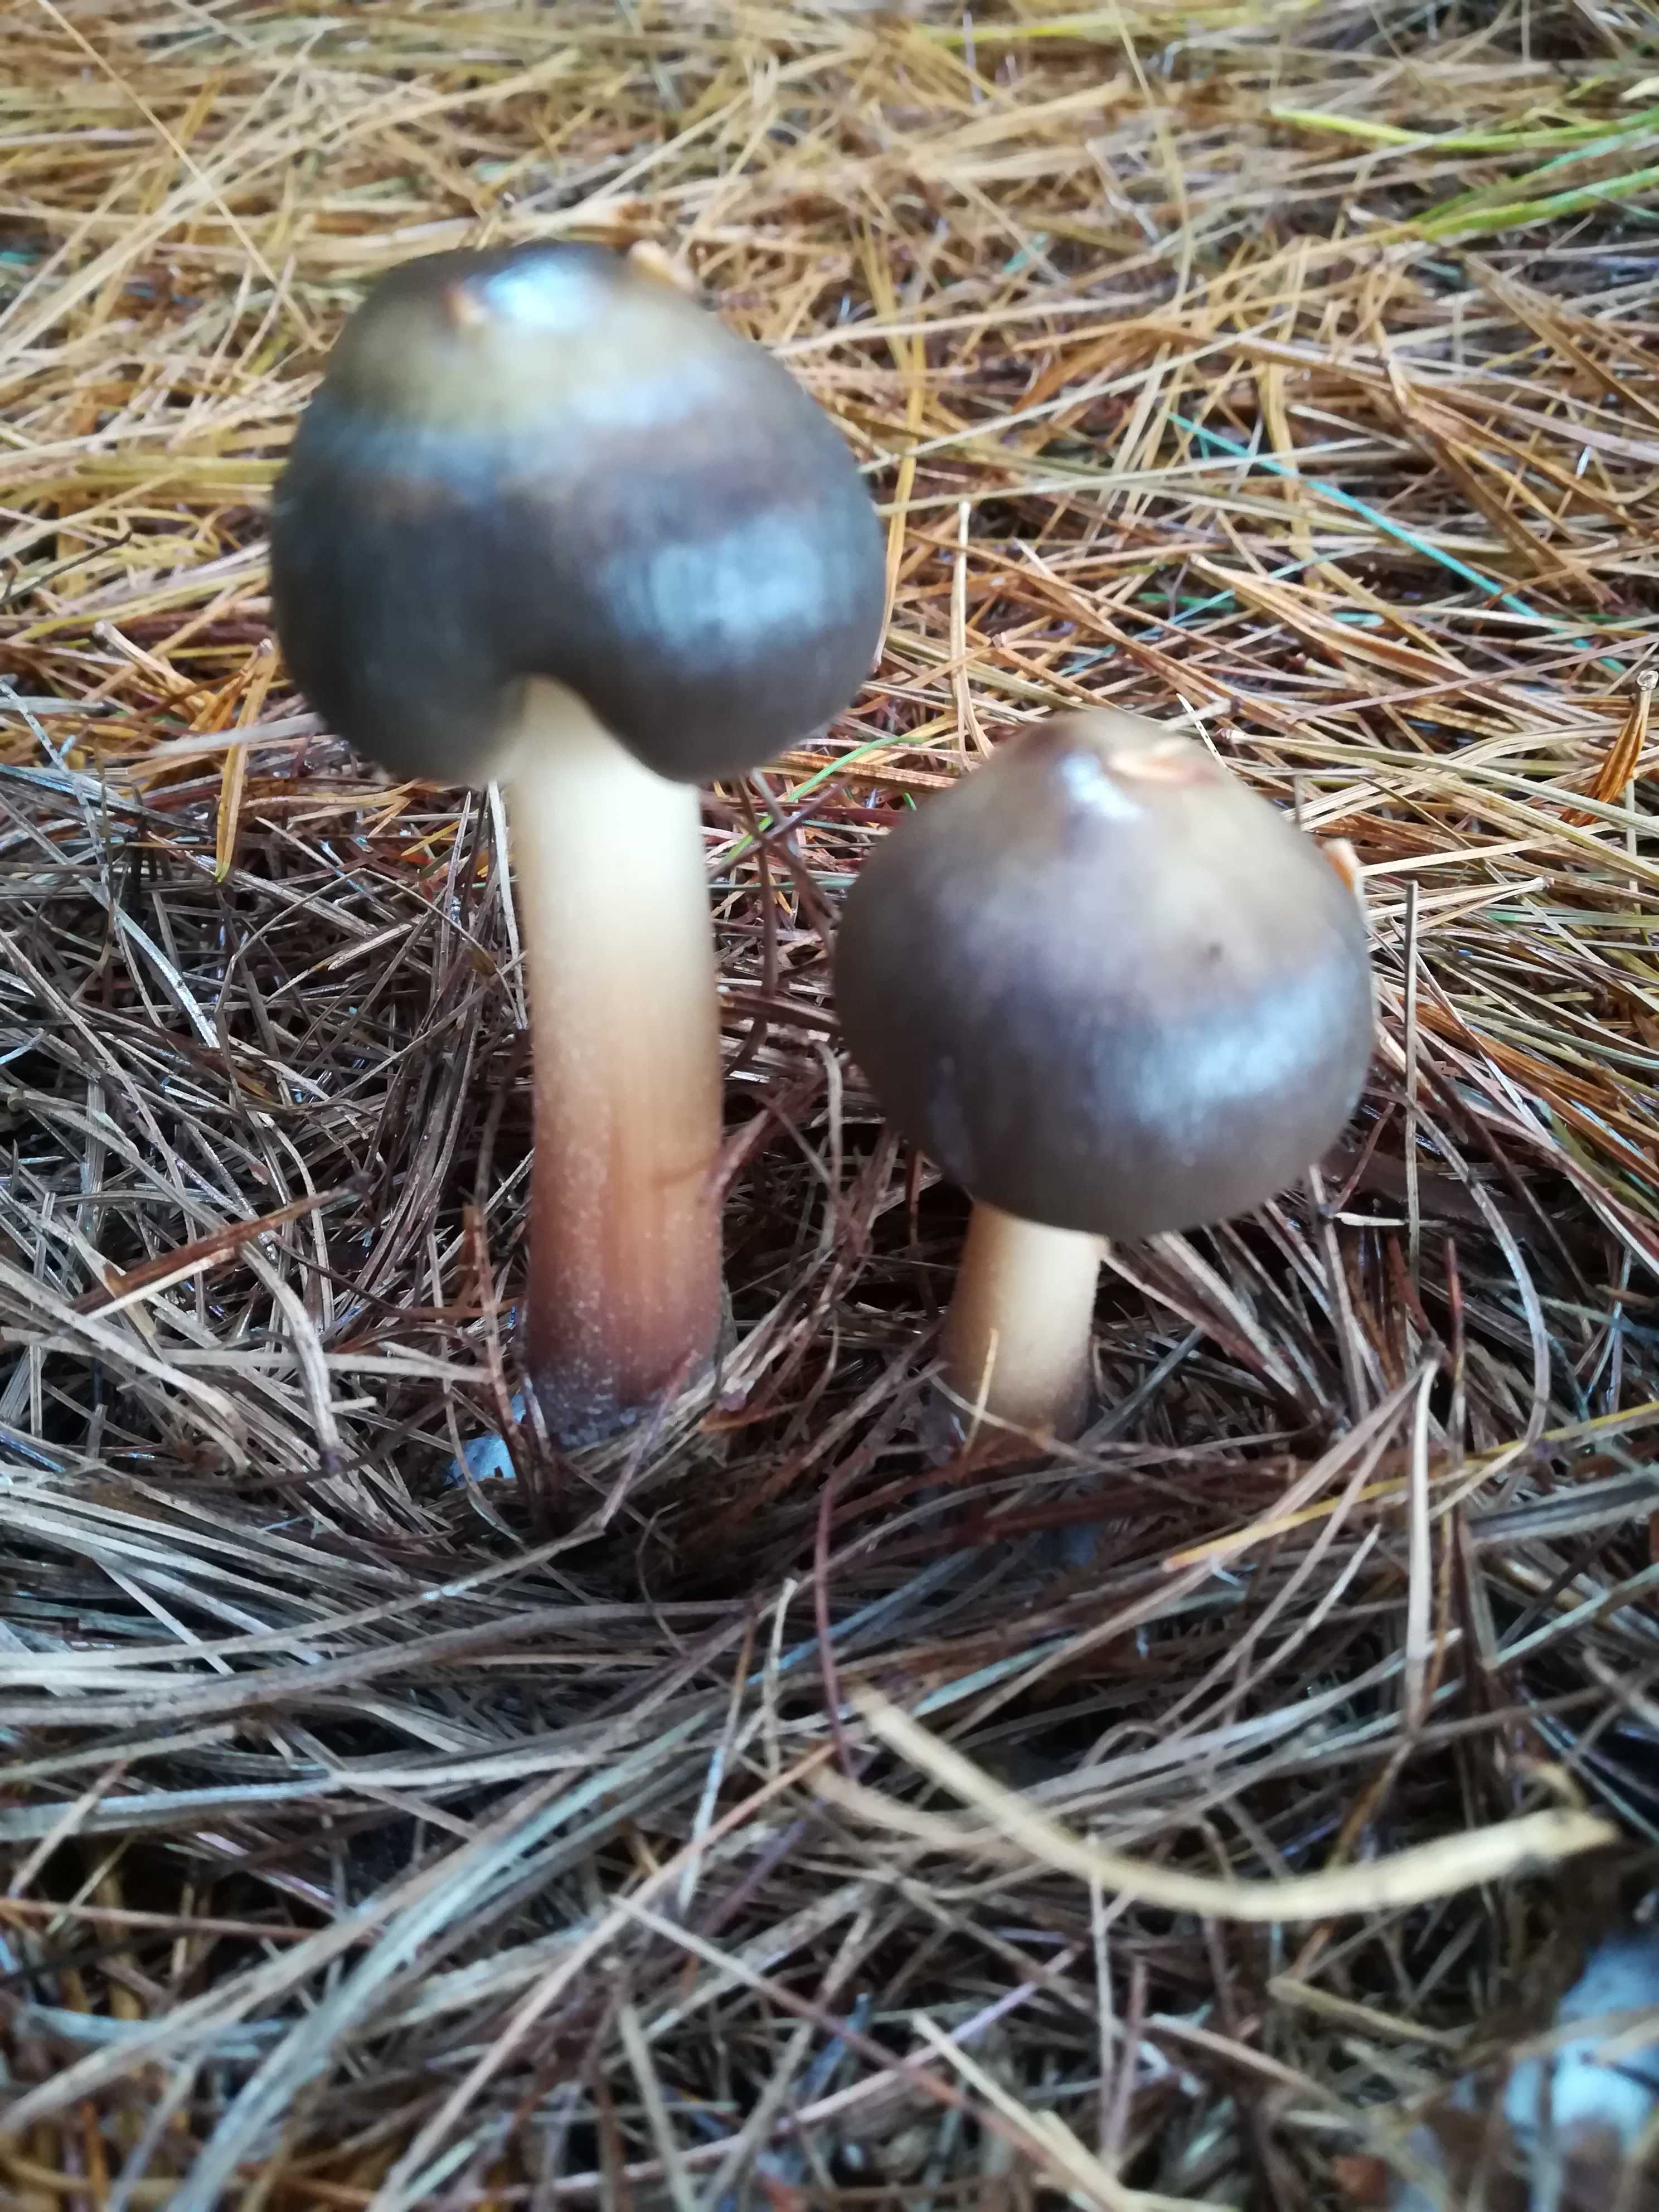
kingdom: Fungi
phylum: Basidiomycota
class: Agaricomycetes
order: Agaricales
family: Omphalotaceae
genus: Rhodocollybia
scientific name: Rhodocollybia asema
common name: horngrå fladhat
